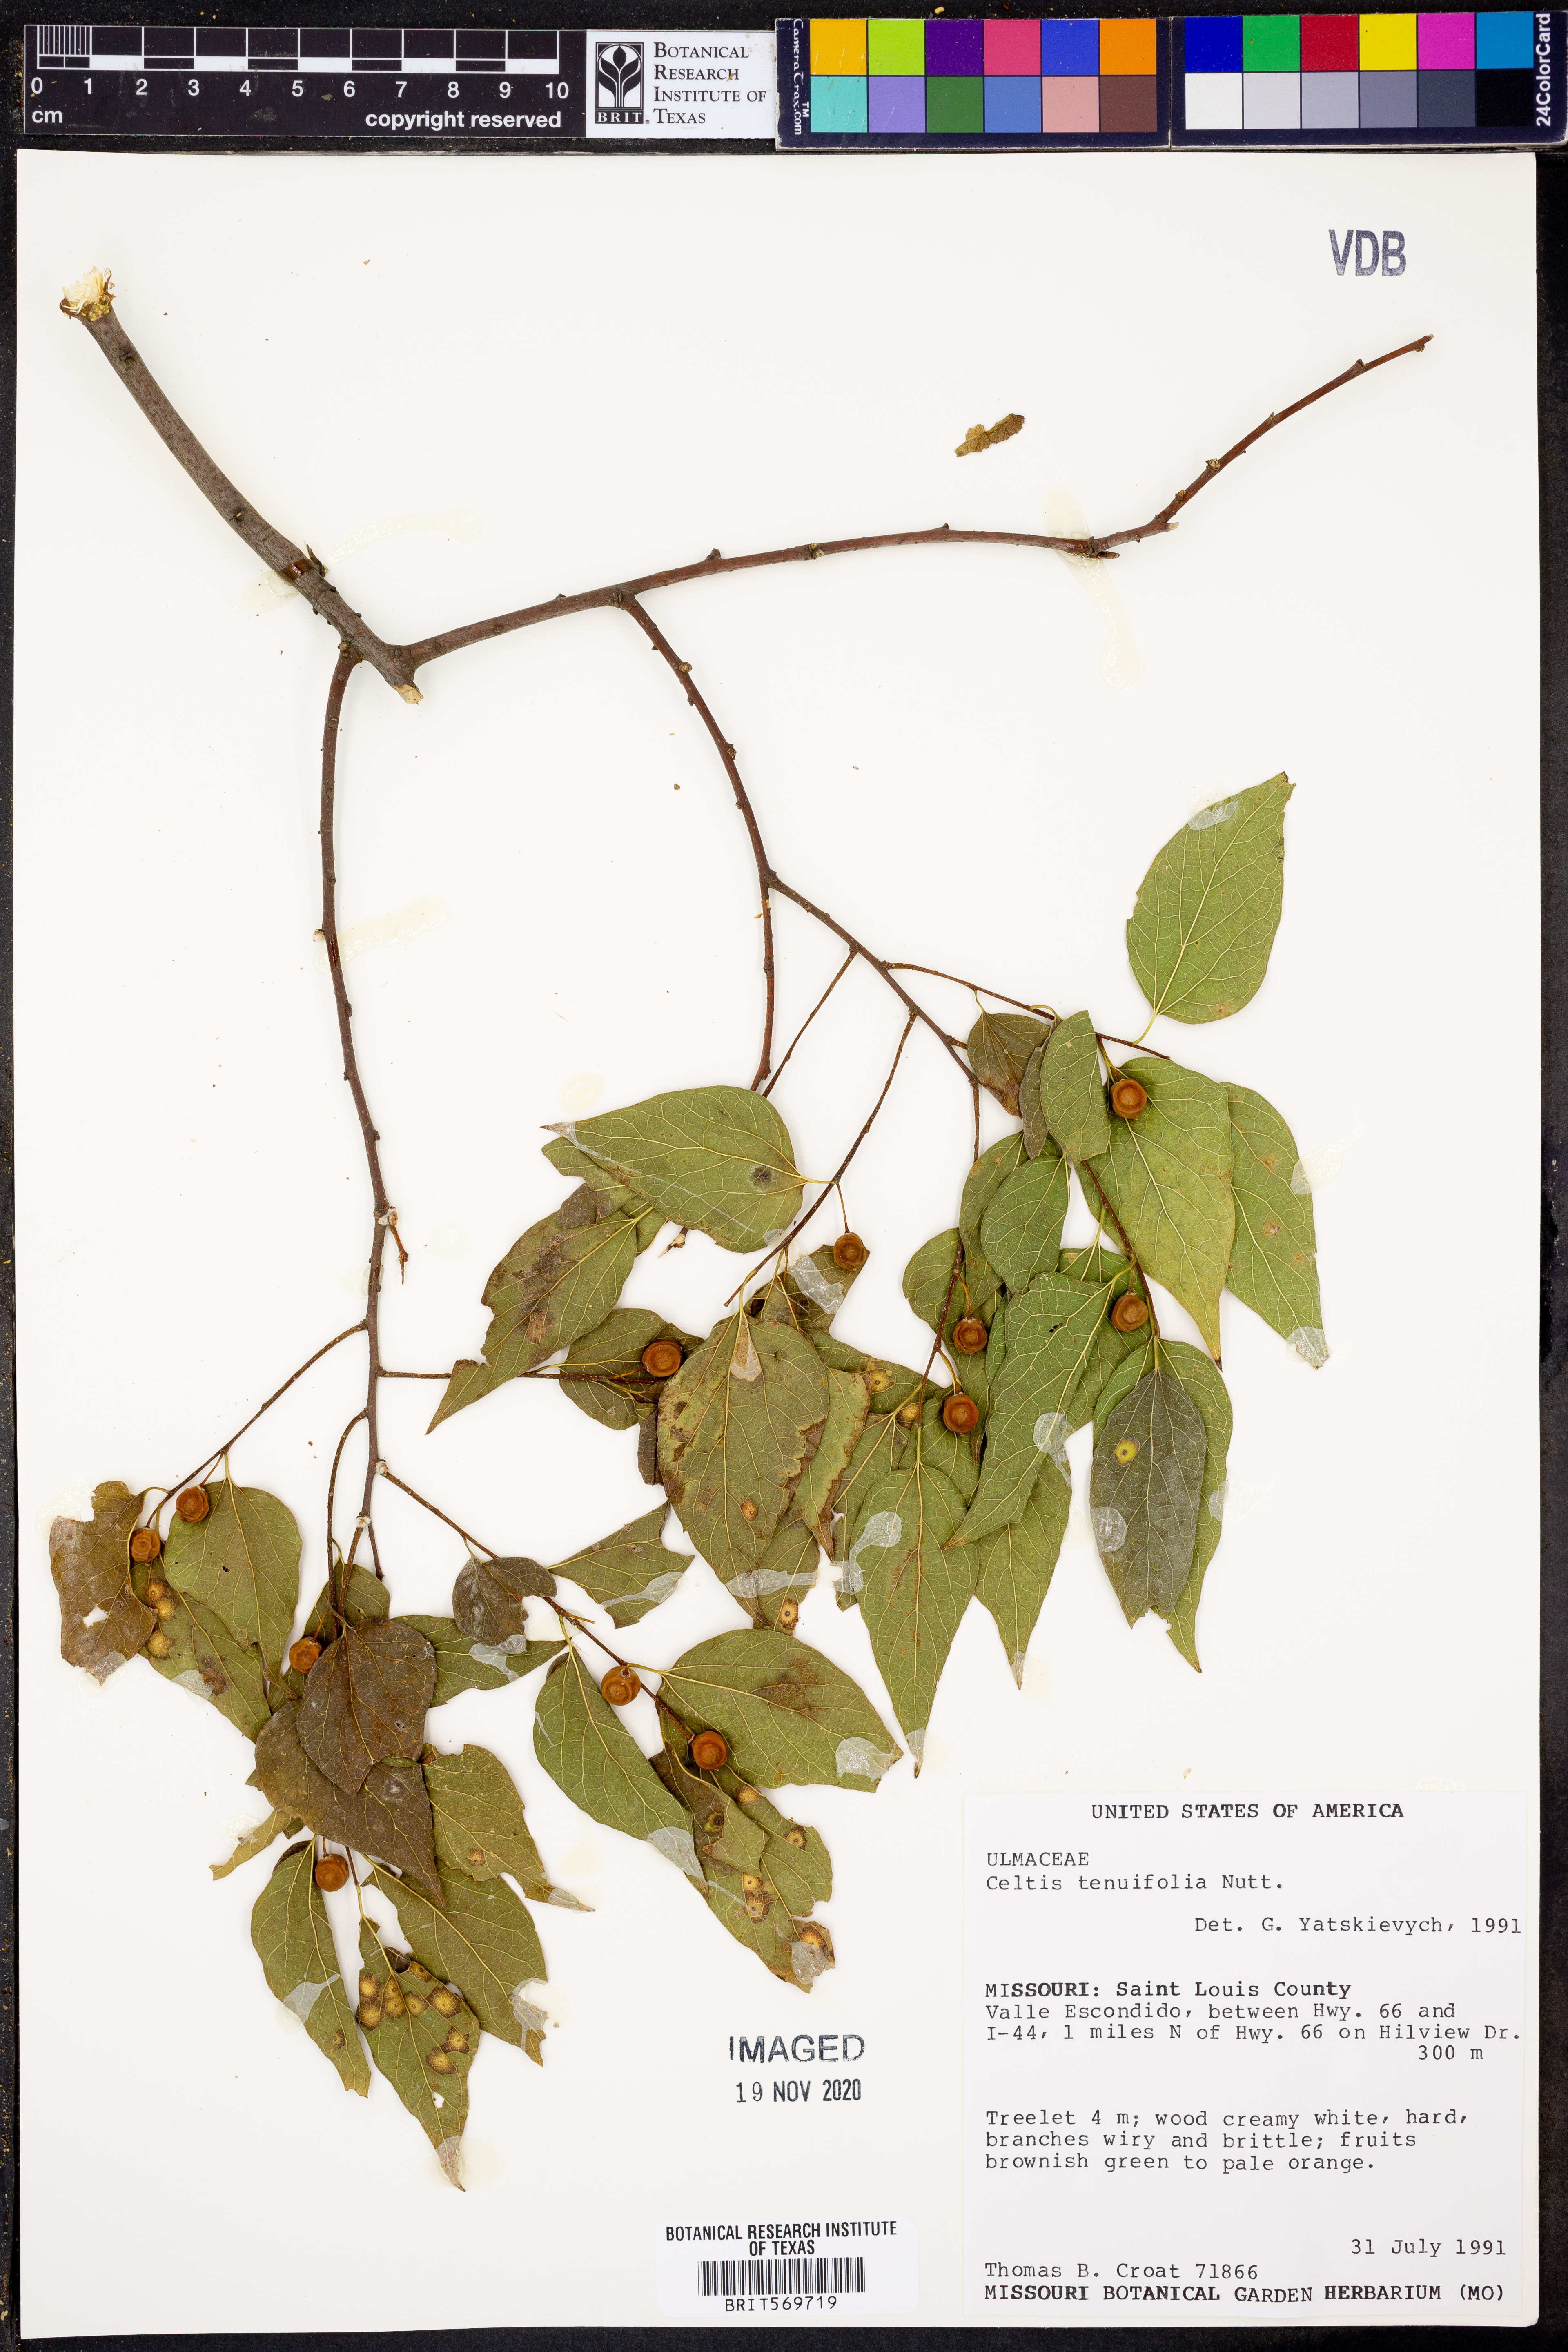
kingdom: Plantae
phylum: Tracheophyta
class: Magnoliopsida
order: Rosales
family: Cannabaceae
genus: Celtis
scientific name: Celtis tenuifolia
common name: Georgia hackberry
